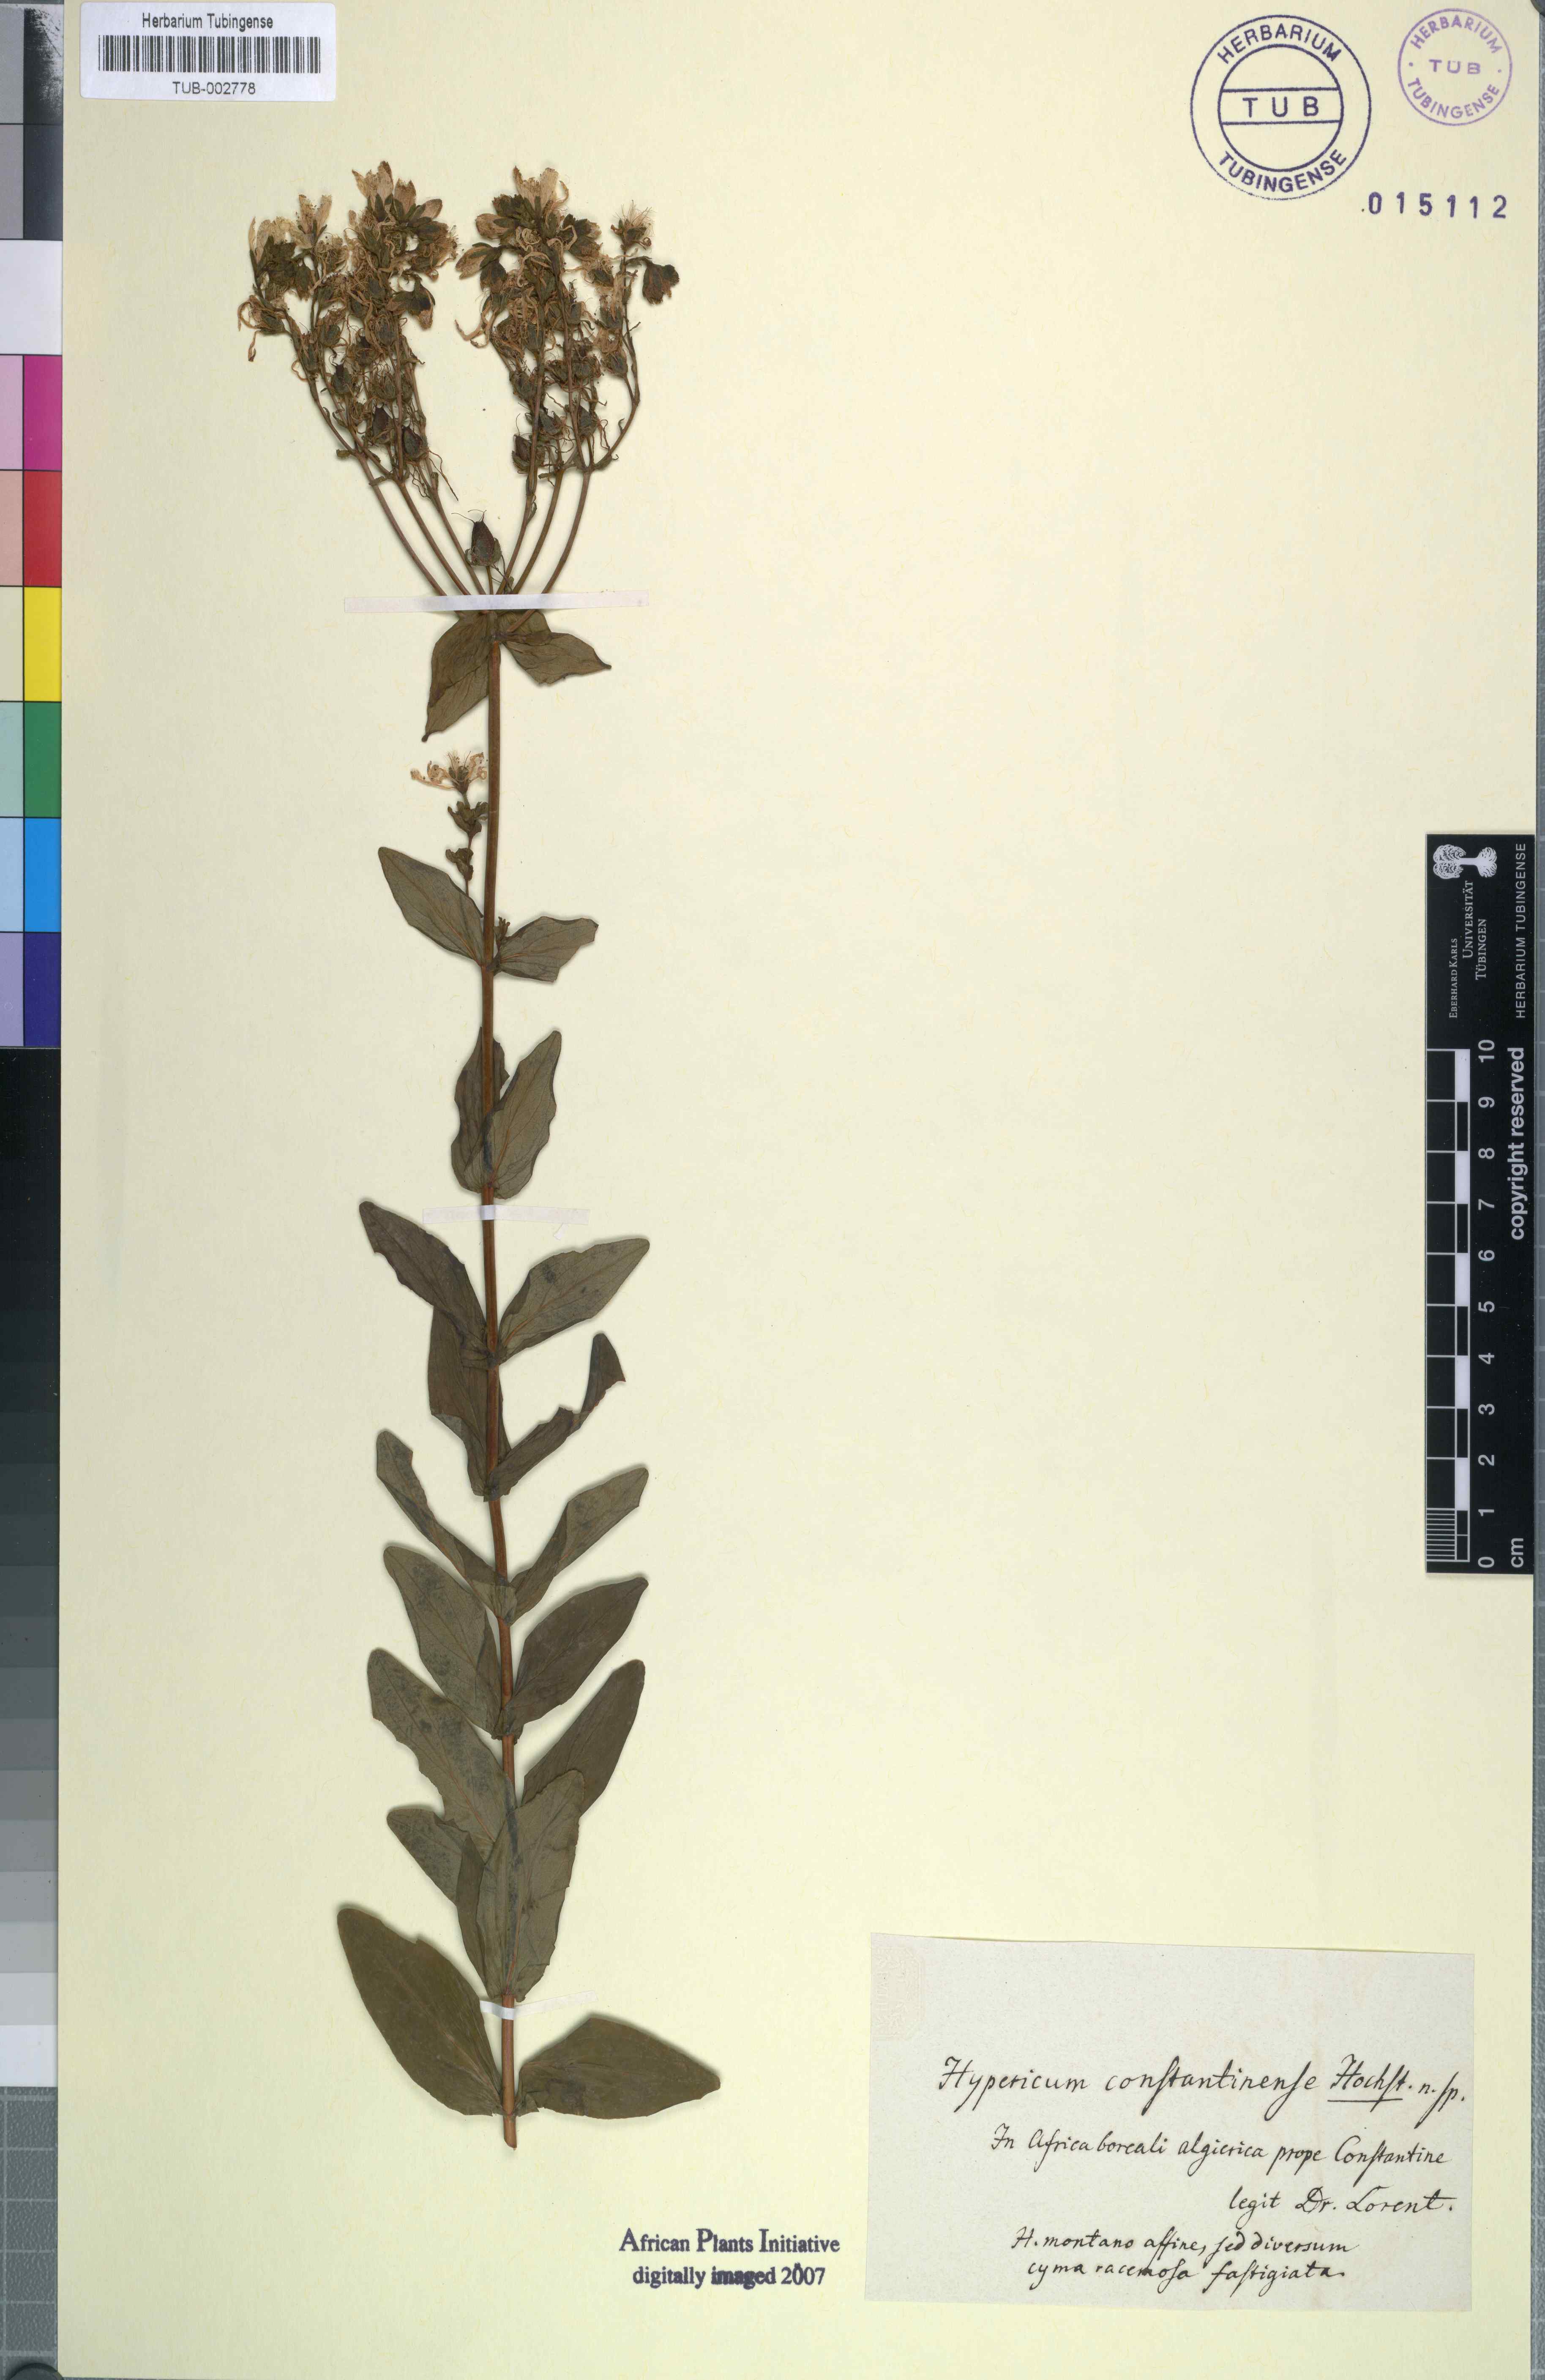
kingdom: Plantae
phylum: Tracheophyta
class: Magnoliopsida
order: Malpighiales
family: Hypericaceae
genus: Hypericum
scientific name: Hypericum
